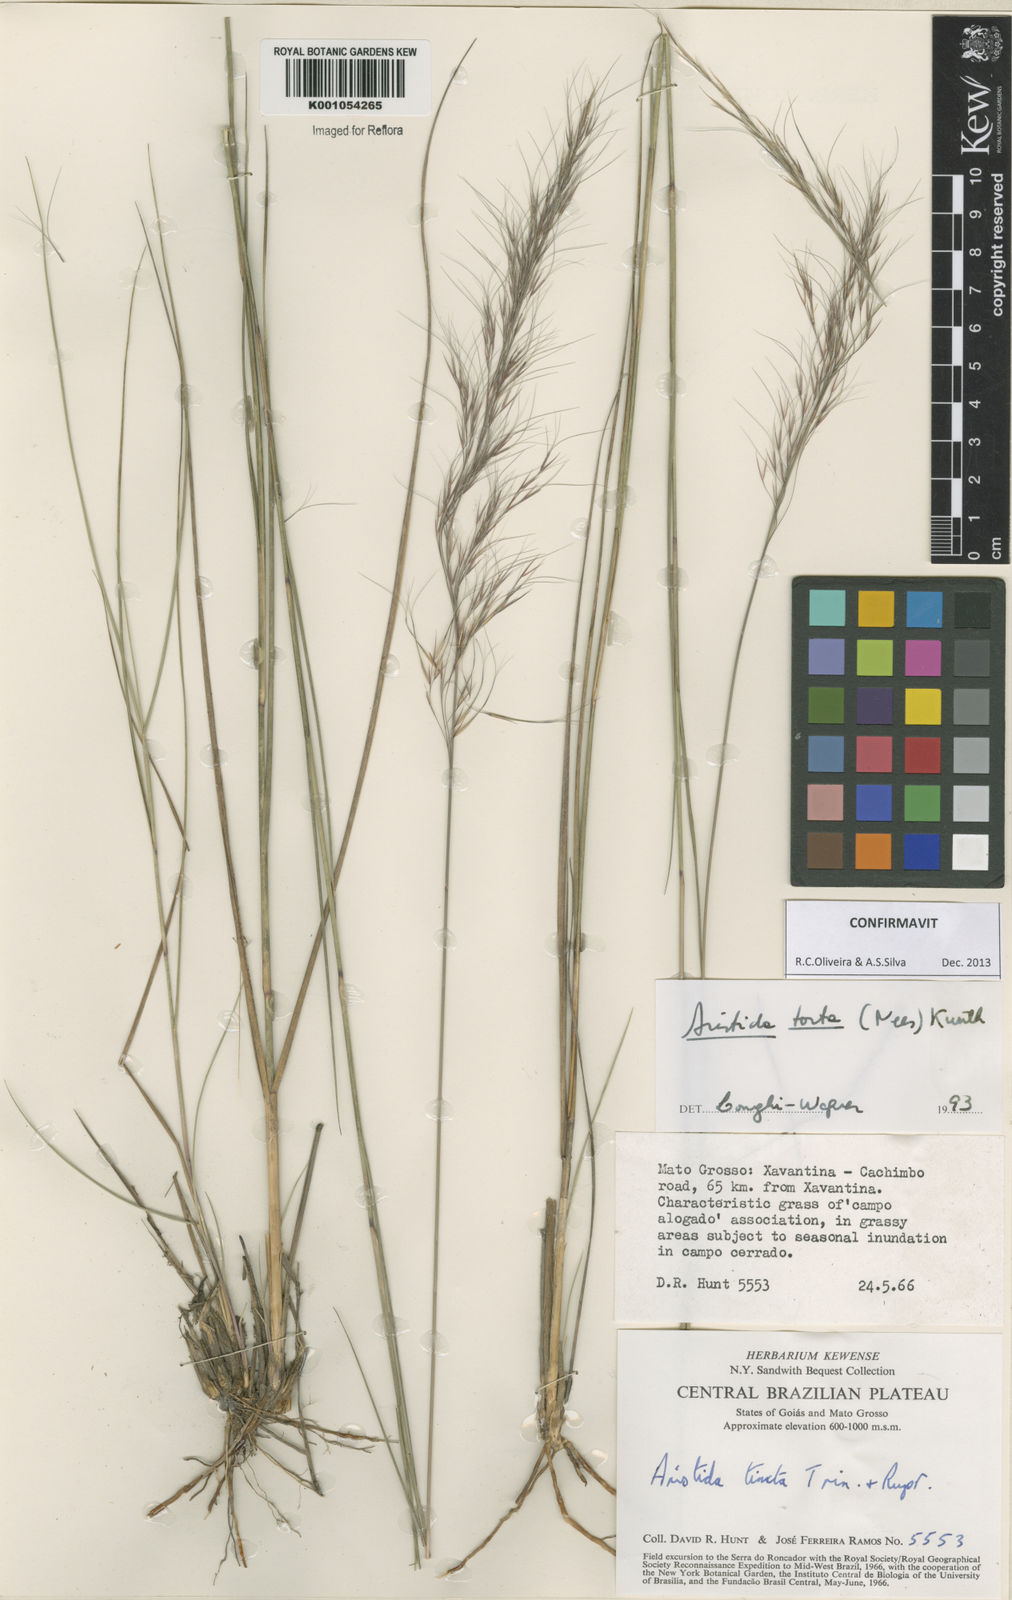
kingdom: Plantae
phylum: Tracheophyta
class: Liliopsida
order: Poales
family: Poaceae
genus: Aristida
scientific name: Aristida torta
